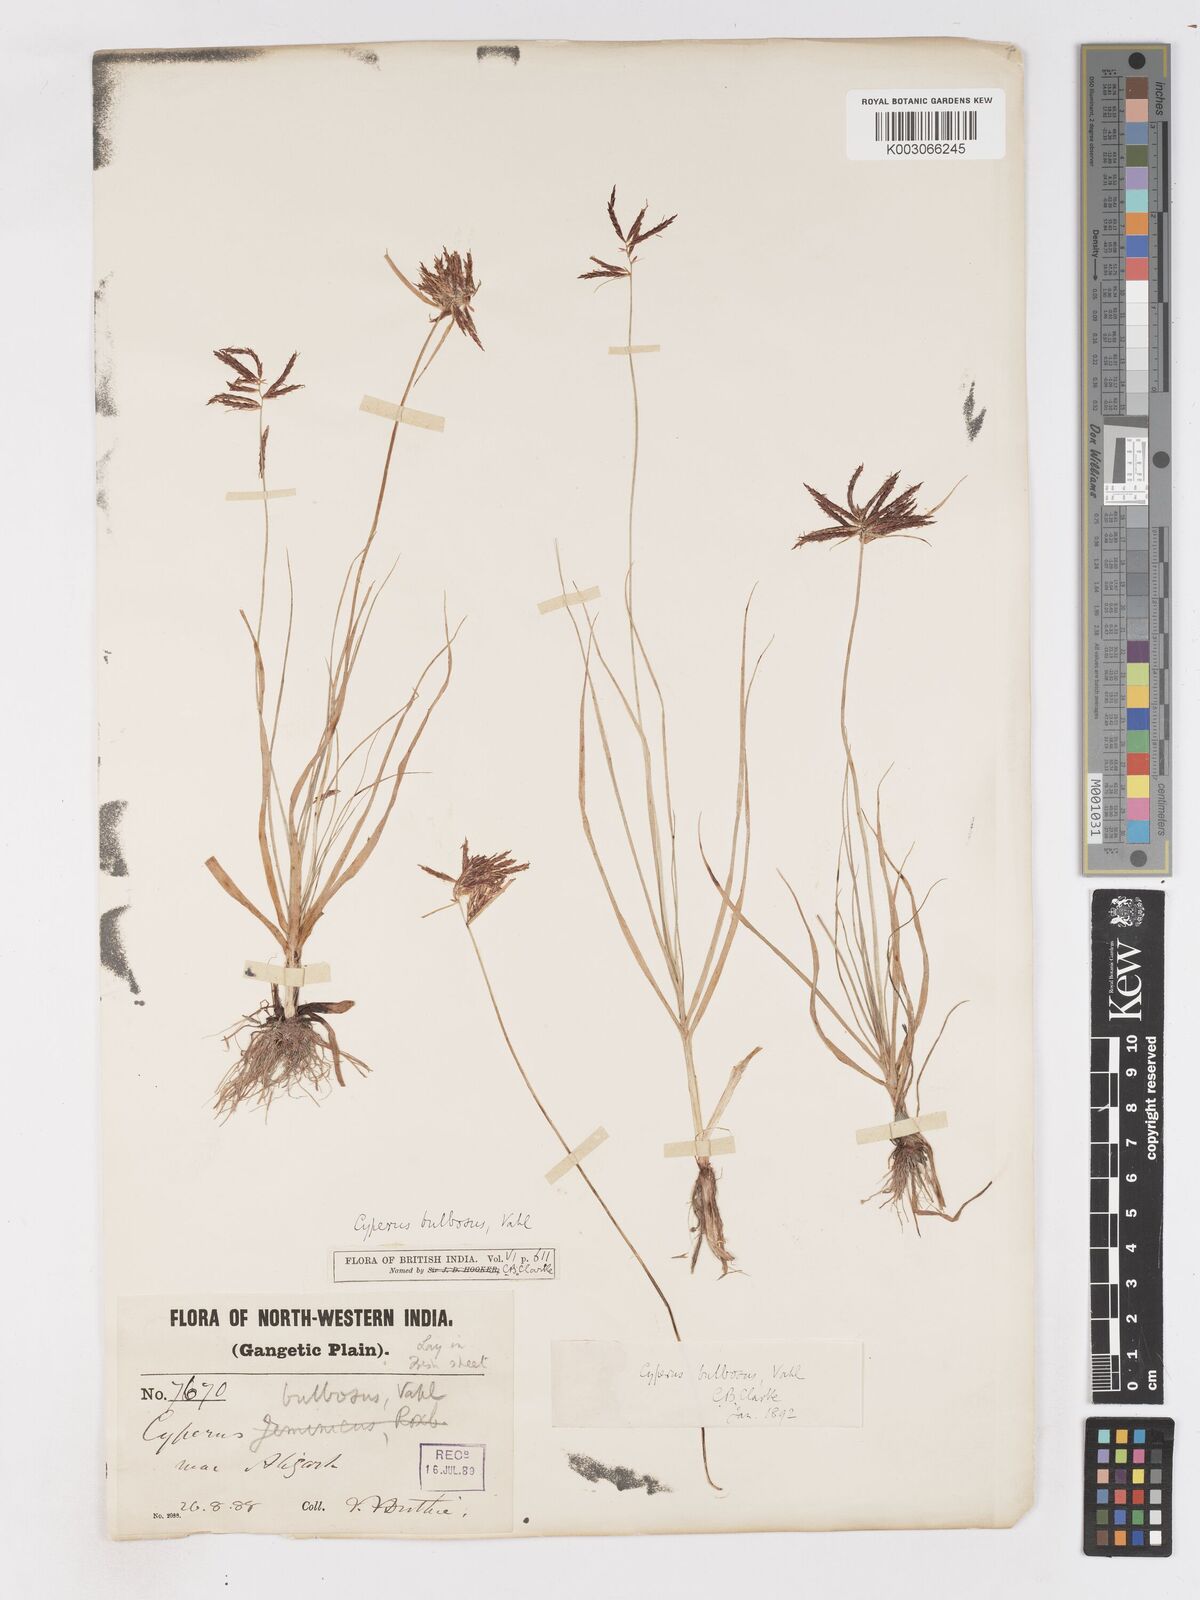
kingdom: Plantae
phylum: Tracheophyta
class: Liliopsida
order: Poales
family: Cyperaceae
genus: Cyperus
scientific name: Cyperus bulbosus
